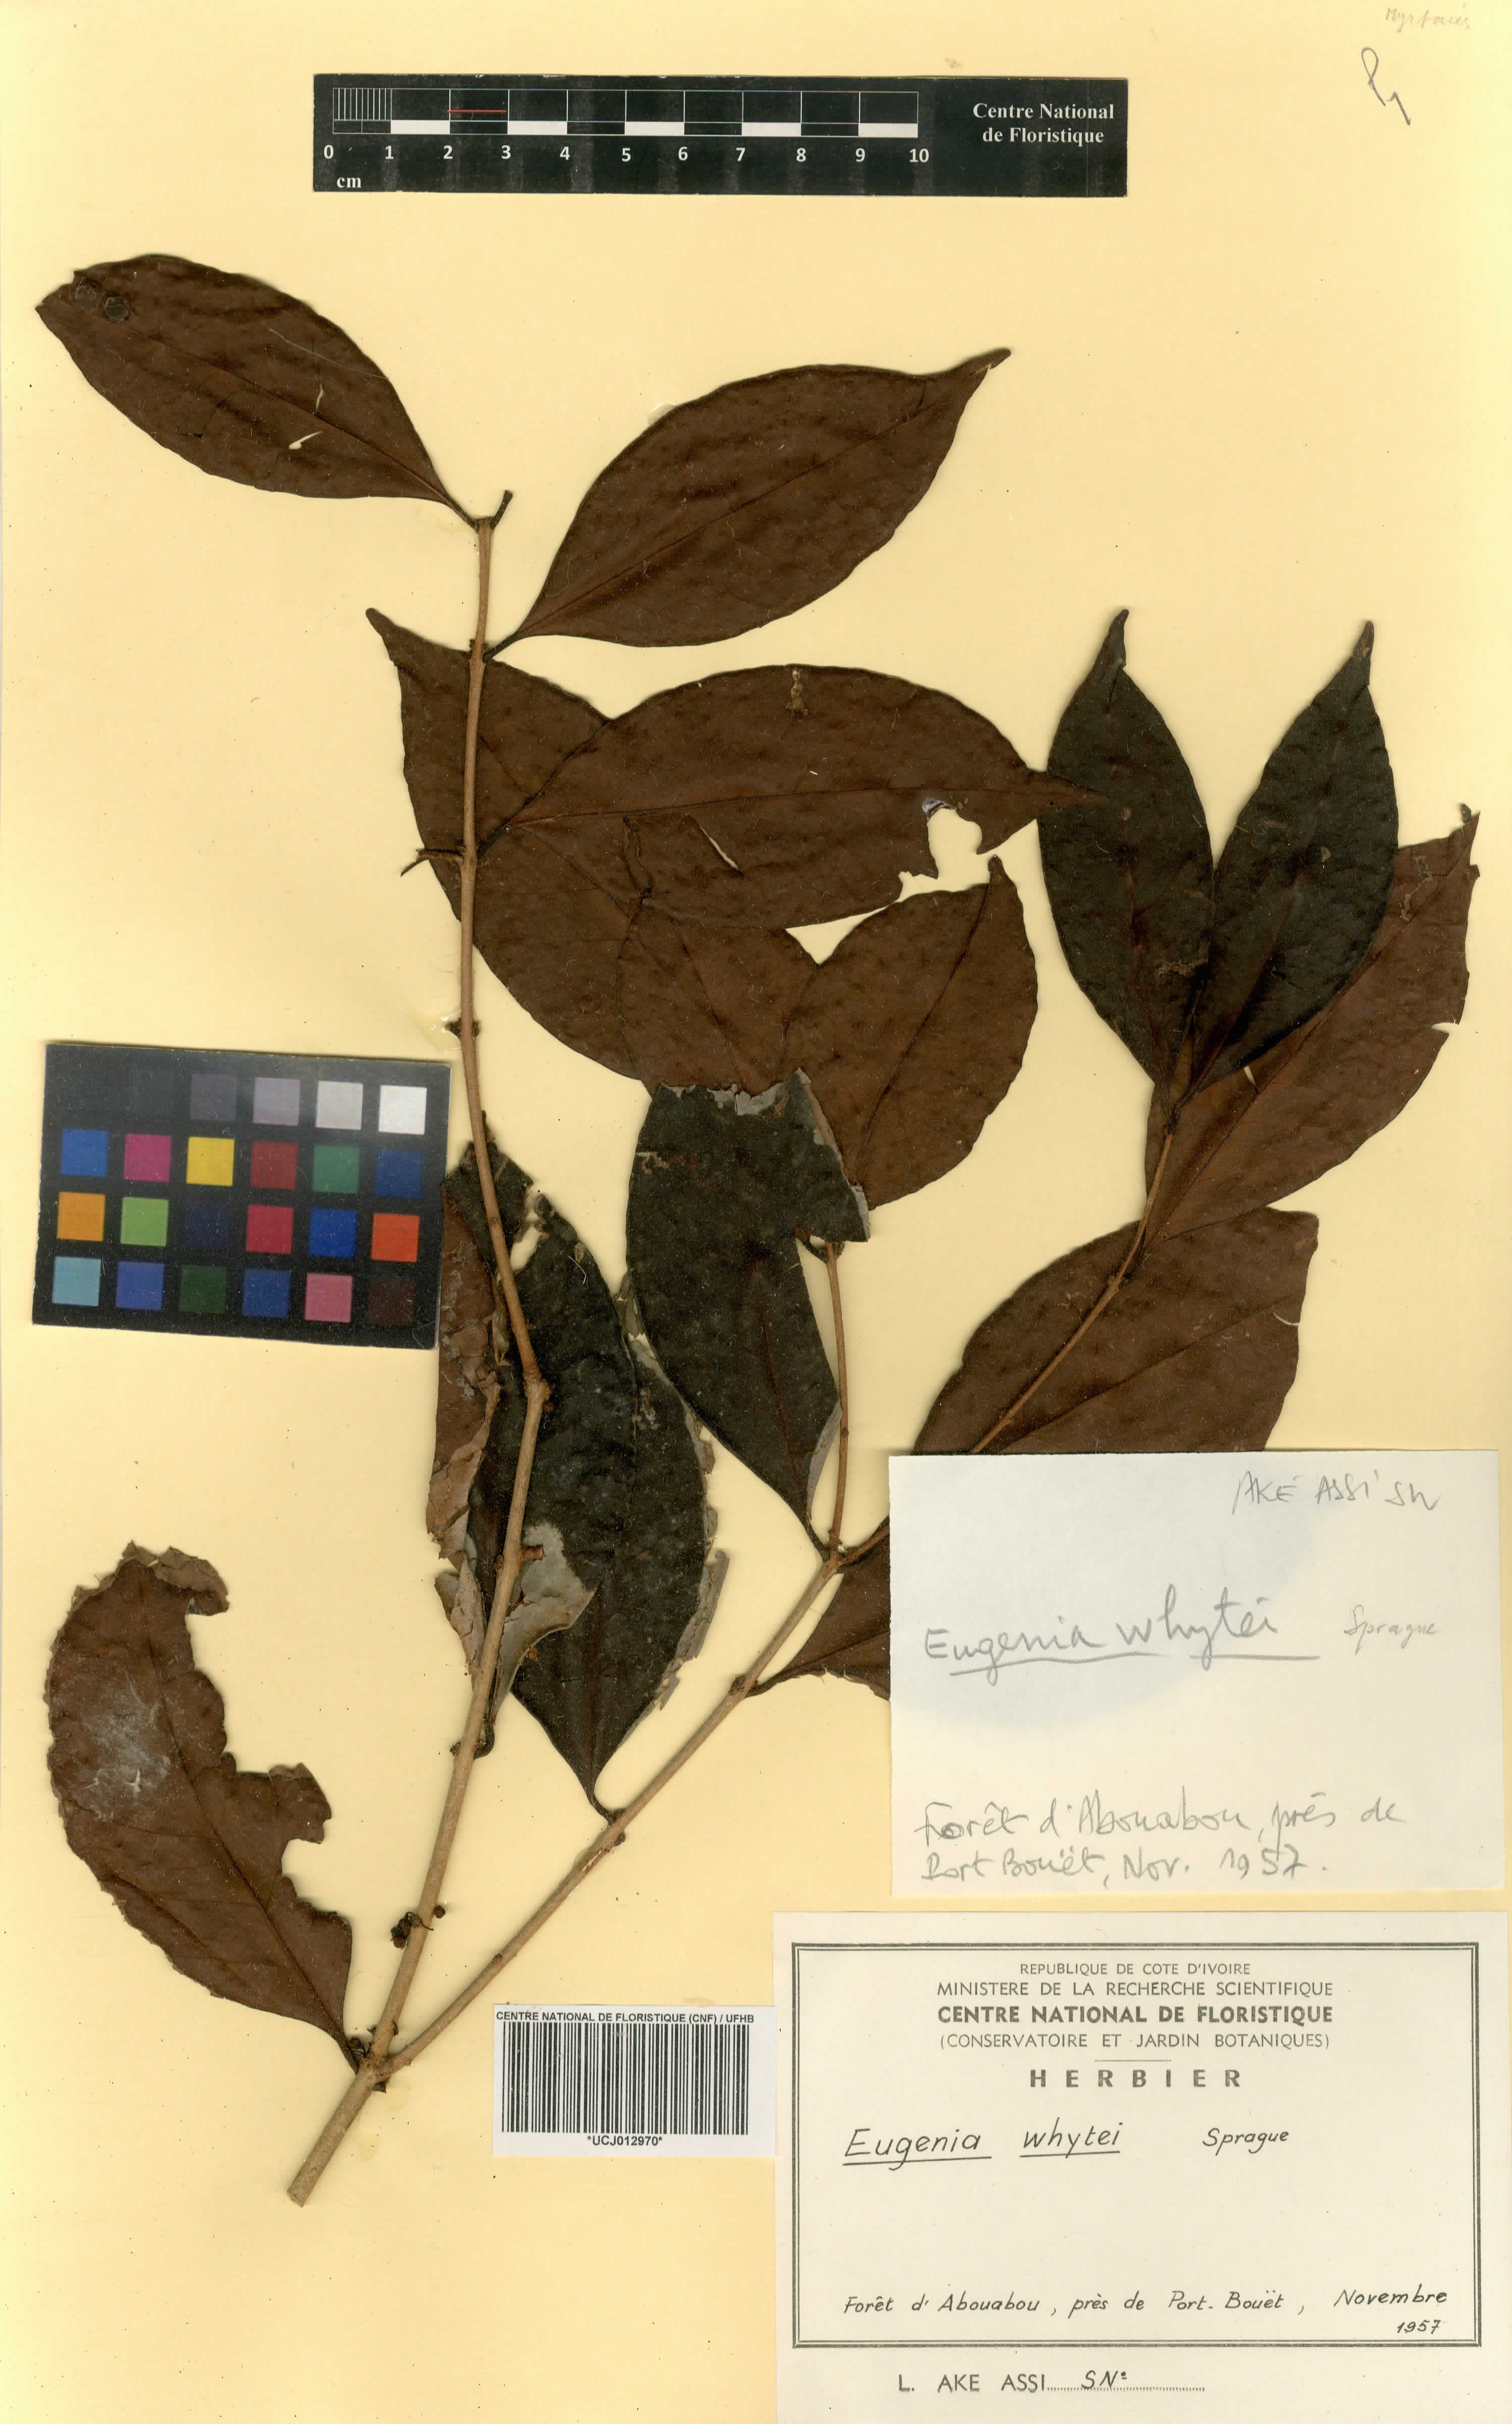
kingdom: Plantae
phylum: Tracheophyta
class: Magnoliopsida
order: Myrtales
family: Myrtaceae
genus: Eugenia
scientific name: Eugenia whytei
